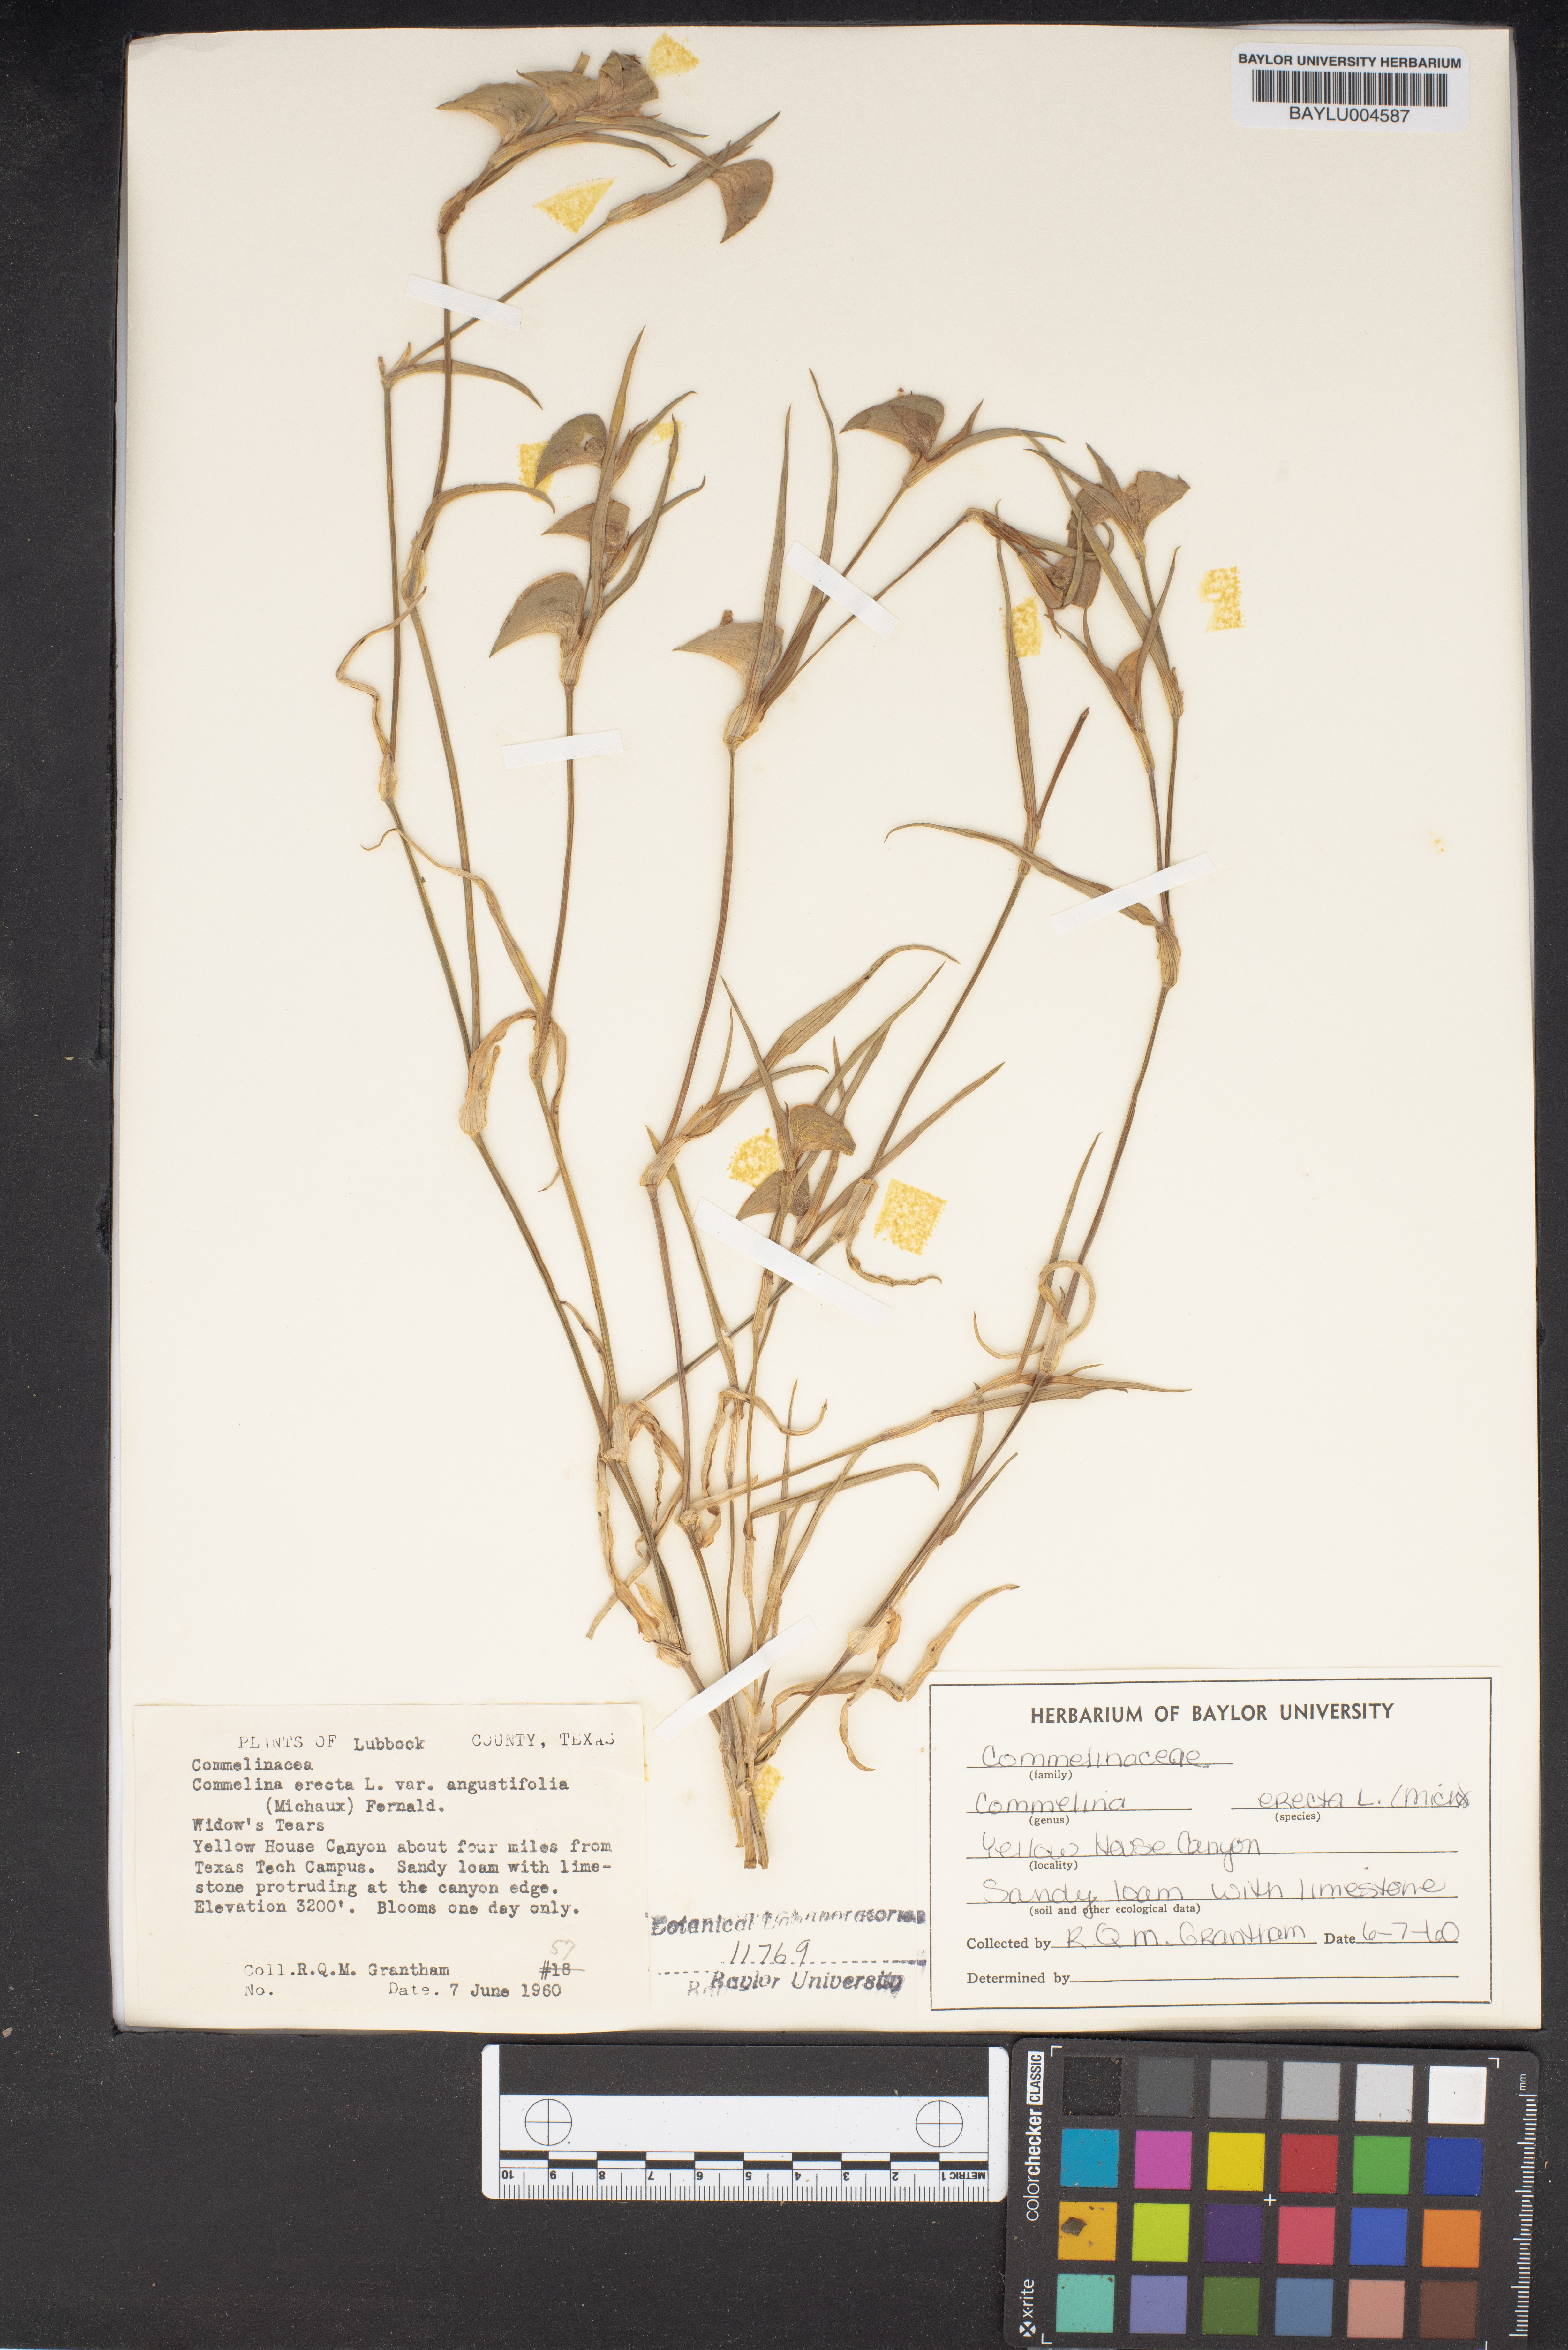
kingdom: Plantae
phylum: Tracheophyta
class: Liliopsida
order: Commelinales
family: Commelinaceae
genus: Commelina
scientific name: Commelina erecta
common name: Blousel blommetjie
